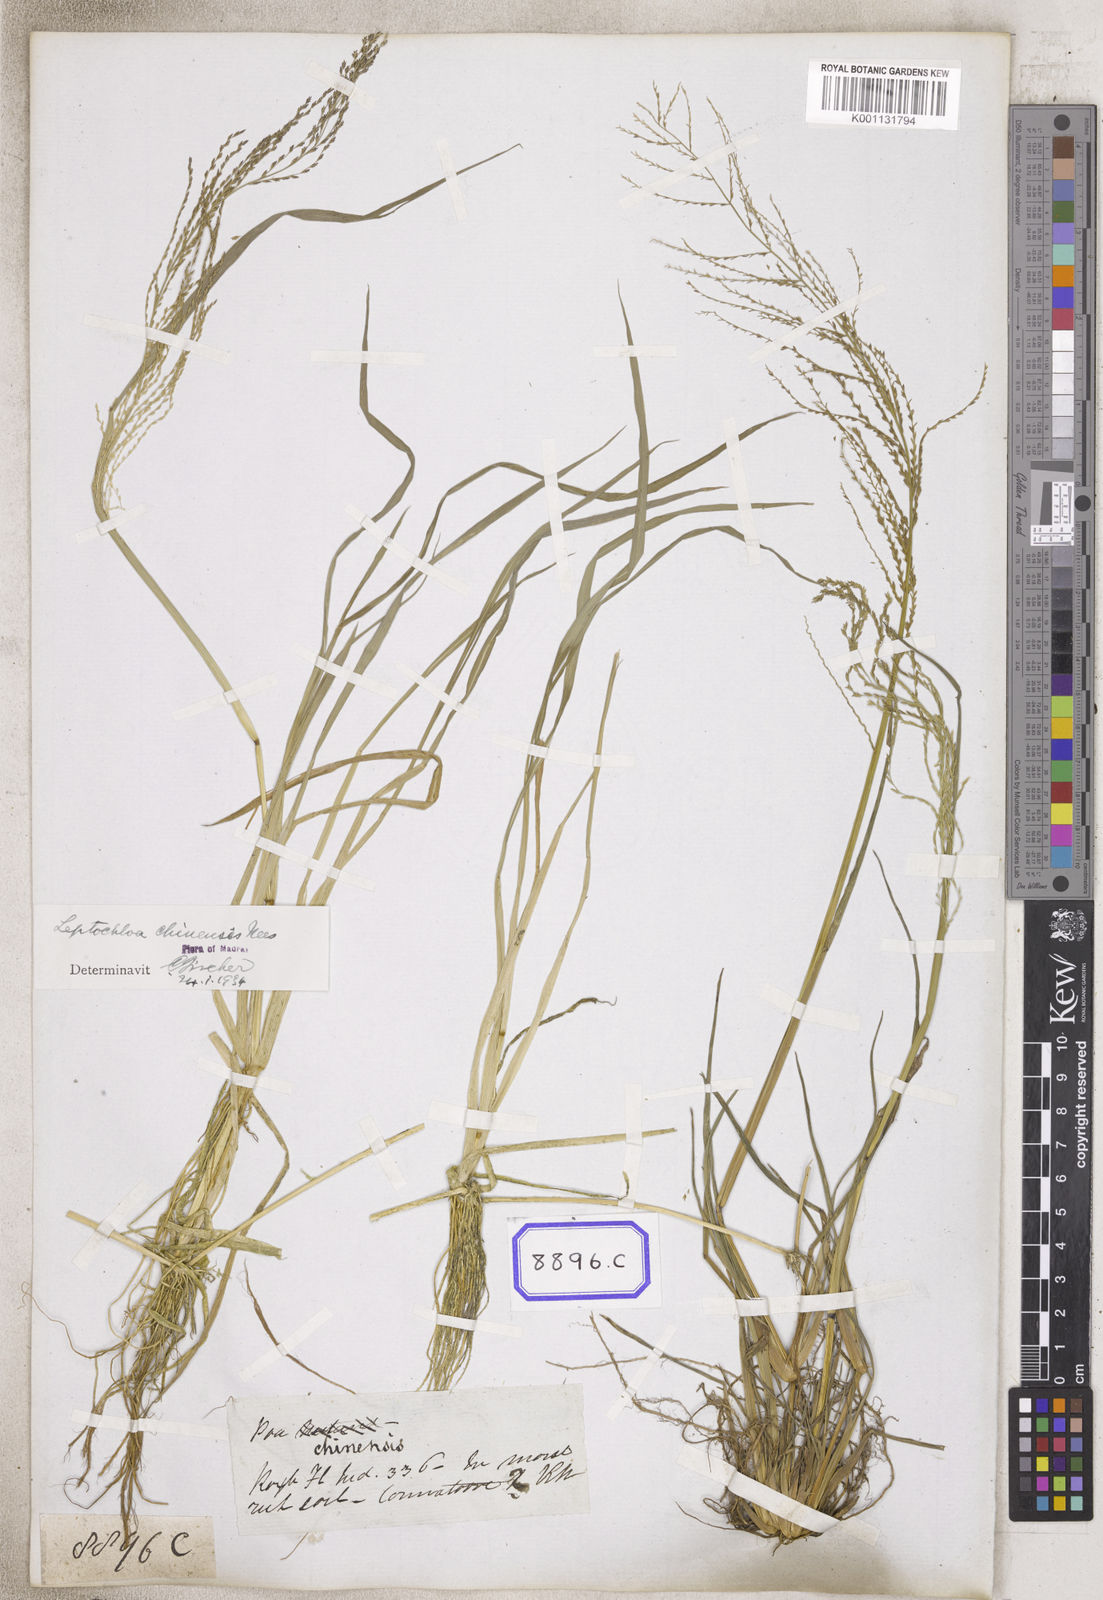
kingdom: Plantae
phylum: Tracheophyta
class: Liliopsida
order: Poales
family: Poaceae
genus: Leptochloa
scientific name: Leptochloa chinensis
